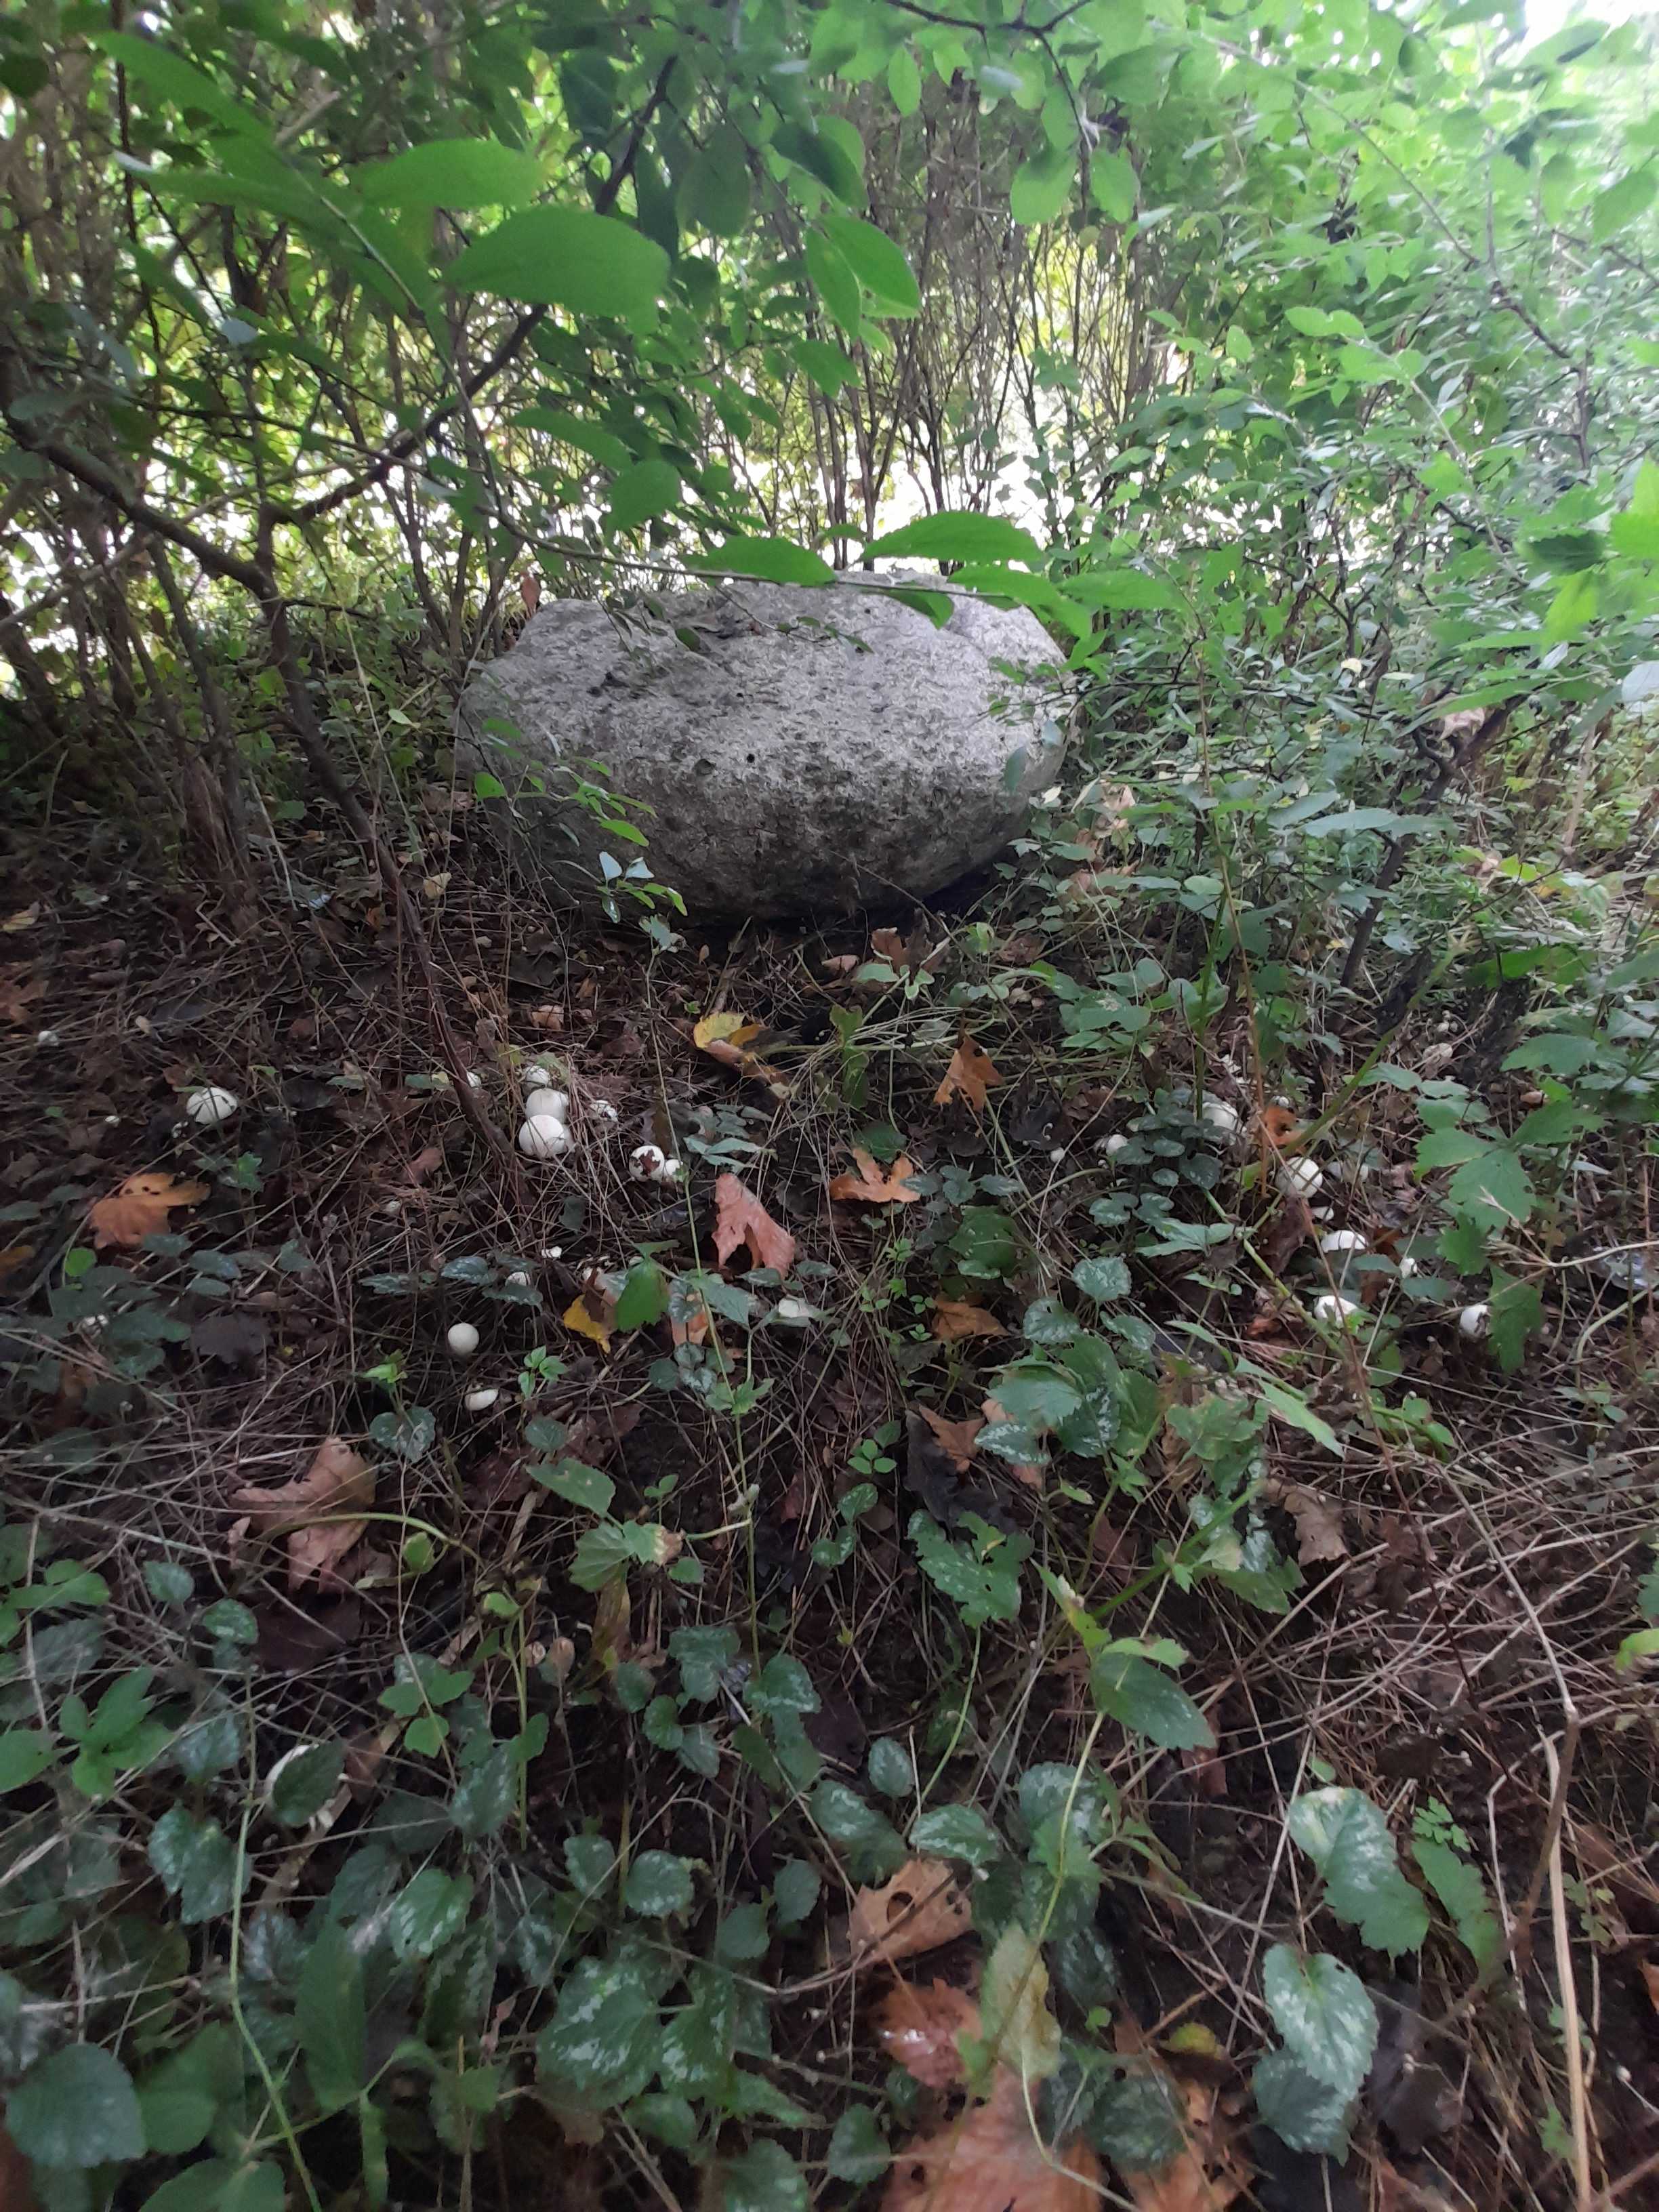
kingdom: Fungi
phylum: Basidiomycota
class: Agaricomycetes
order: Agaricales
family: Agaricaceae
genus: Agaricus
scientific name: Agaricus
